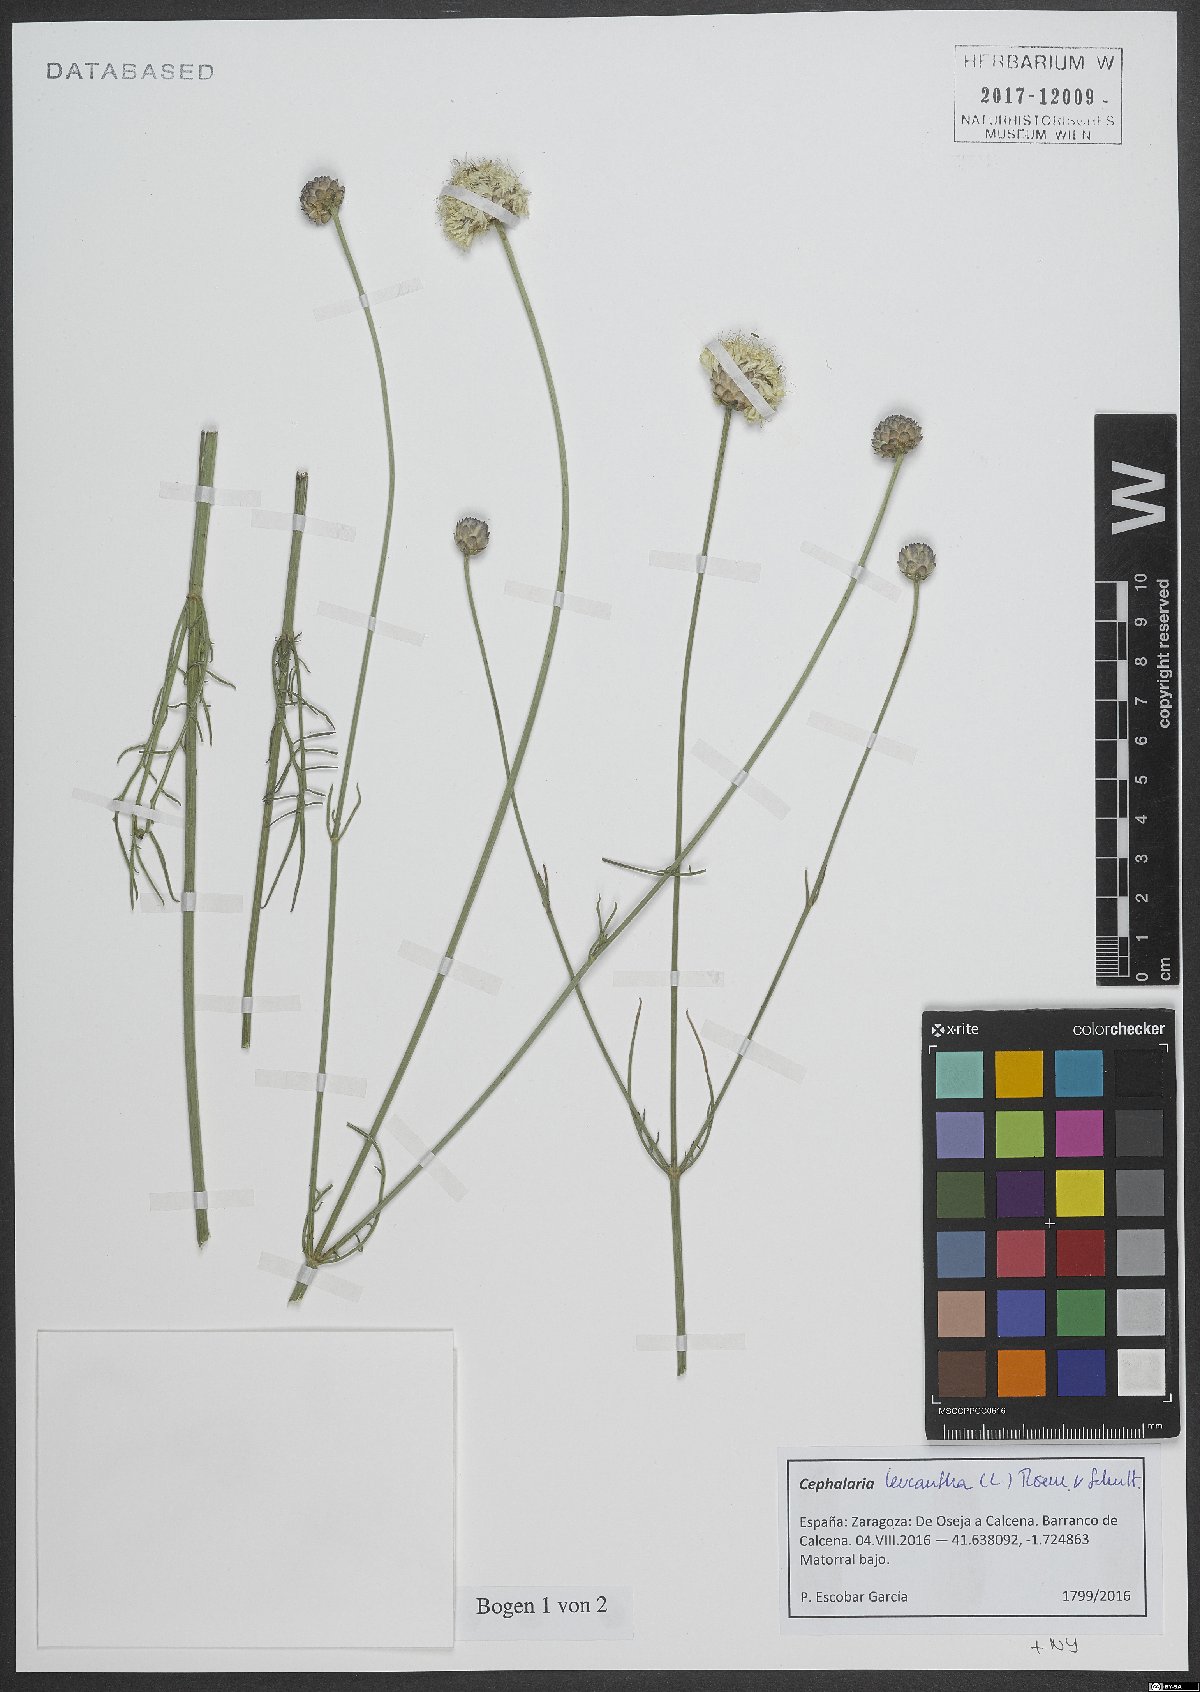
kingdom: Plantae
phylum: Tracheophyta
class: Magnoliopsida
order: Dipsacales
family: Caprifoliaceae
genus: Cephalaria
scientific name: Cephalaria leucantha
